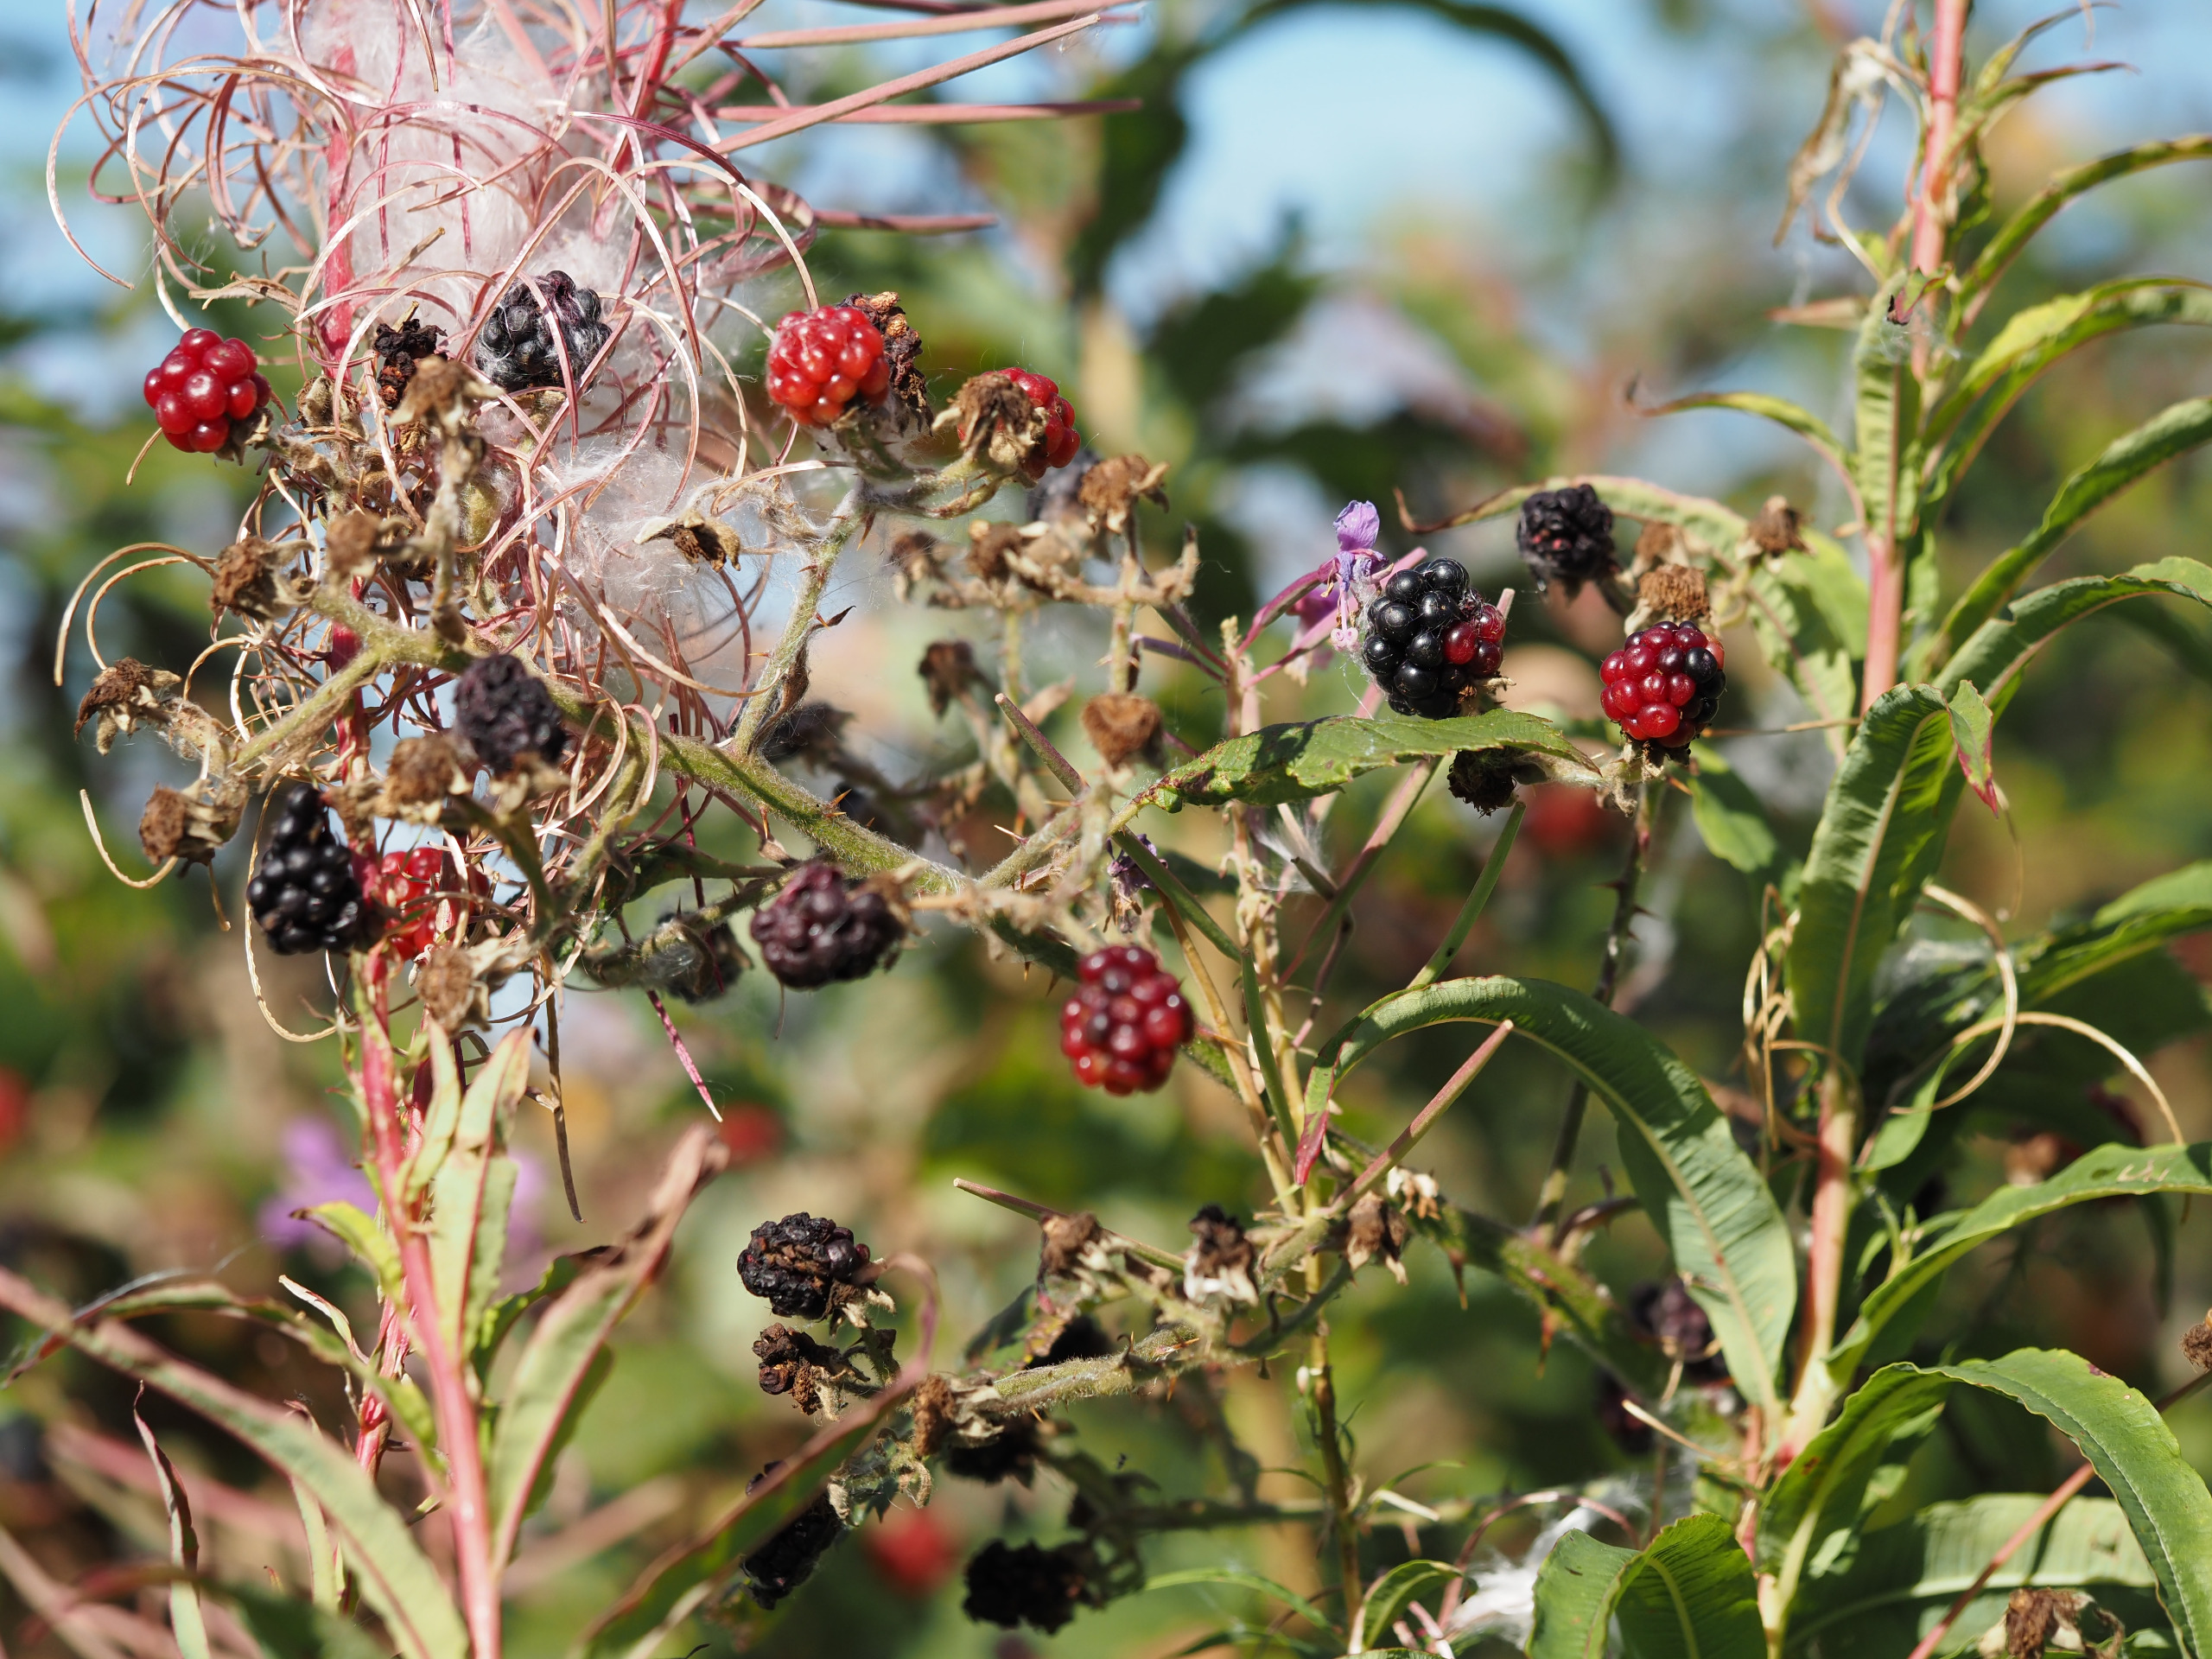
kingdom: Plantae
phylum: Tracheophyta
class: Magnoliopsida
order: Rosales
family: Rosaceae
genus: Rubus
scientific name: Rubus
